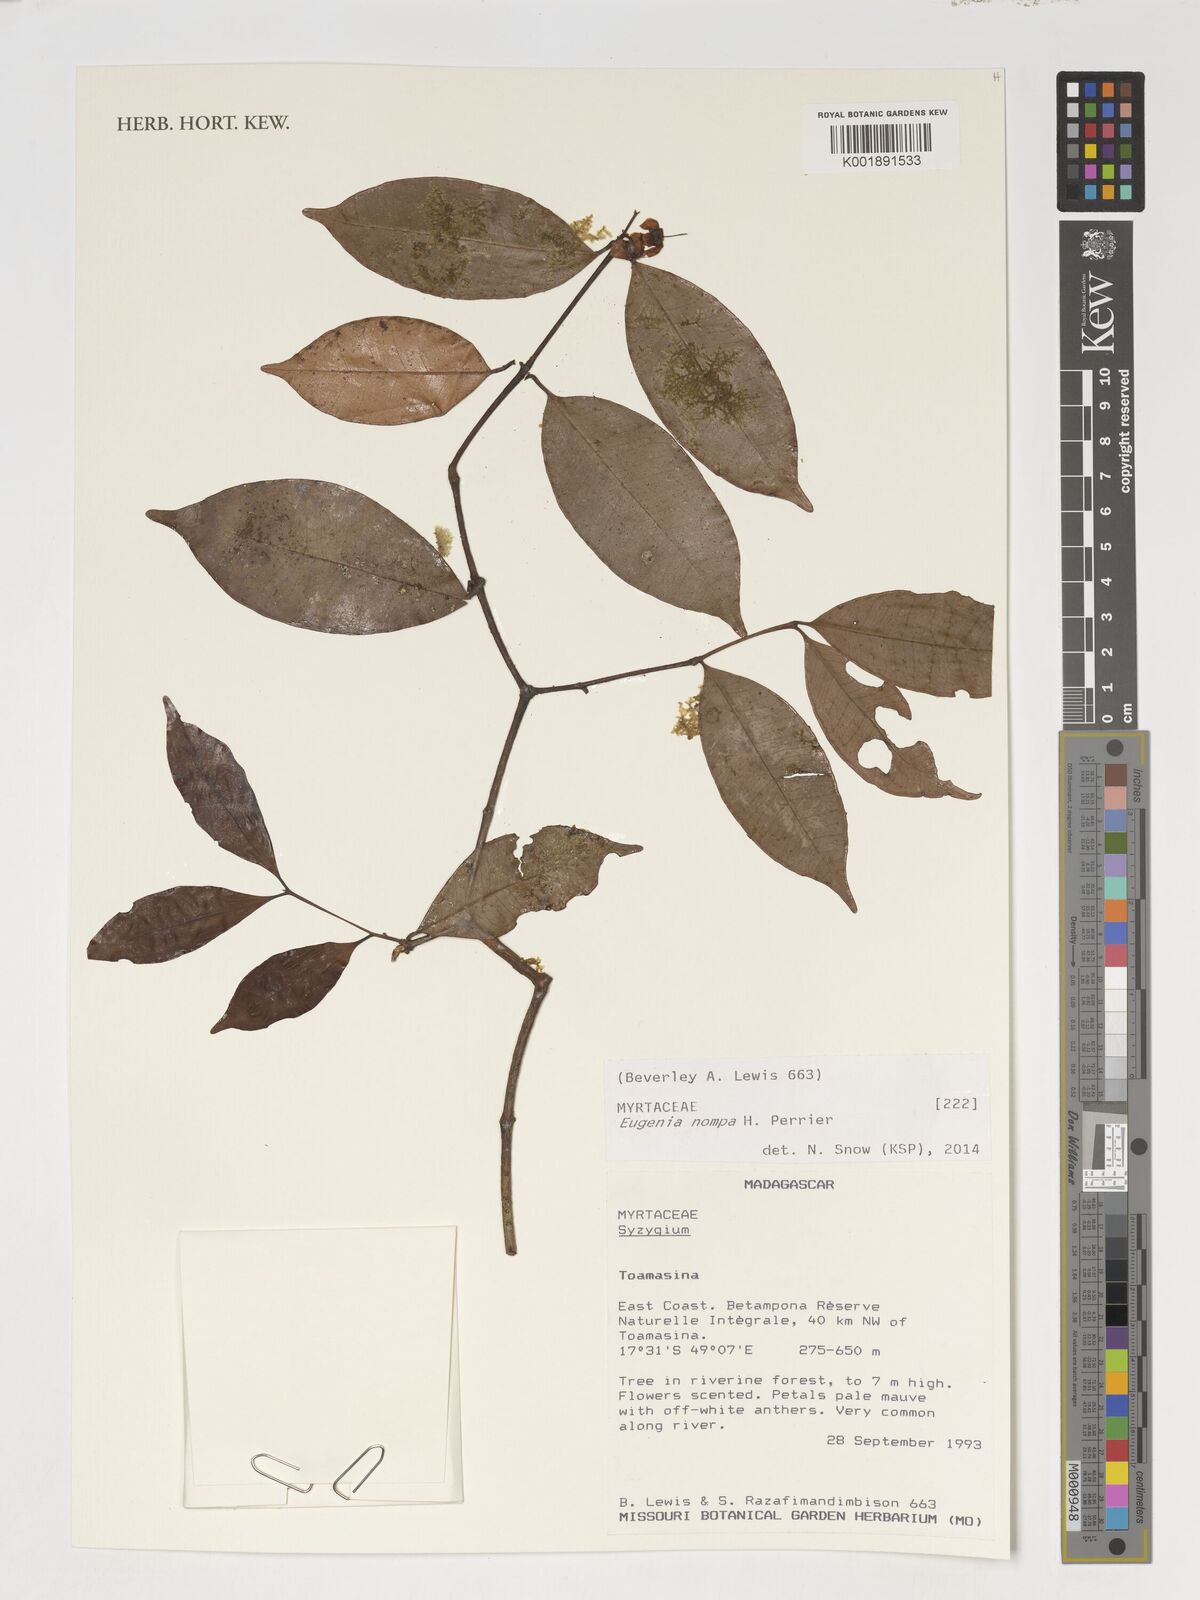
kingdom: Plantae
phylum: Tracheophyta
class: Magnoliopsida
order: Myrtales
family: Myrtaceae
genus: Eugenia
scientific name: Eugenia nompa
